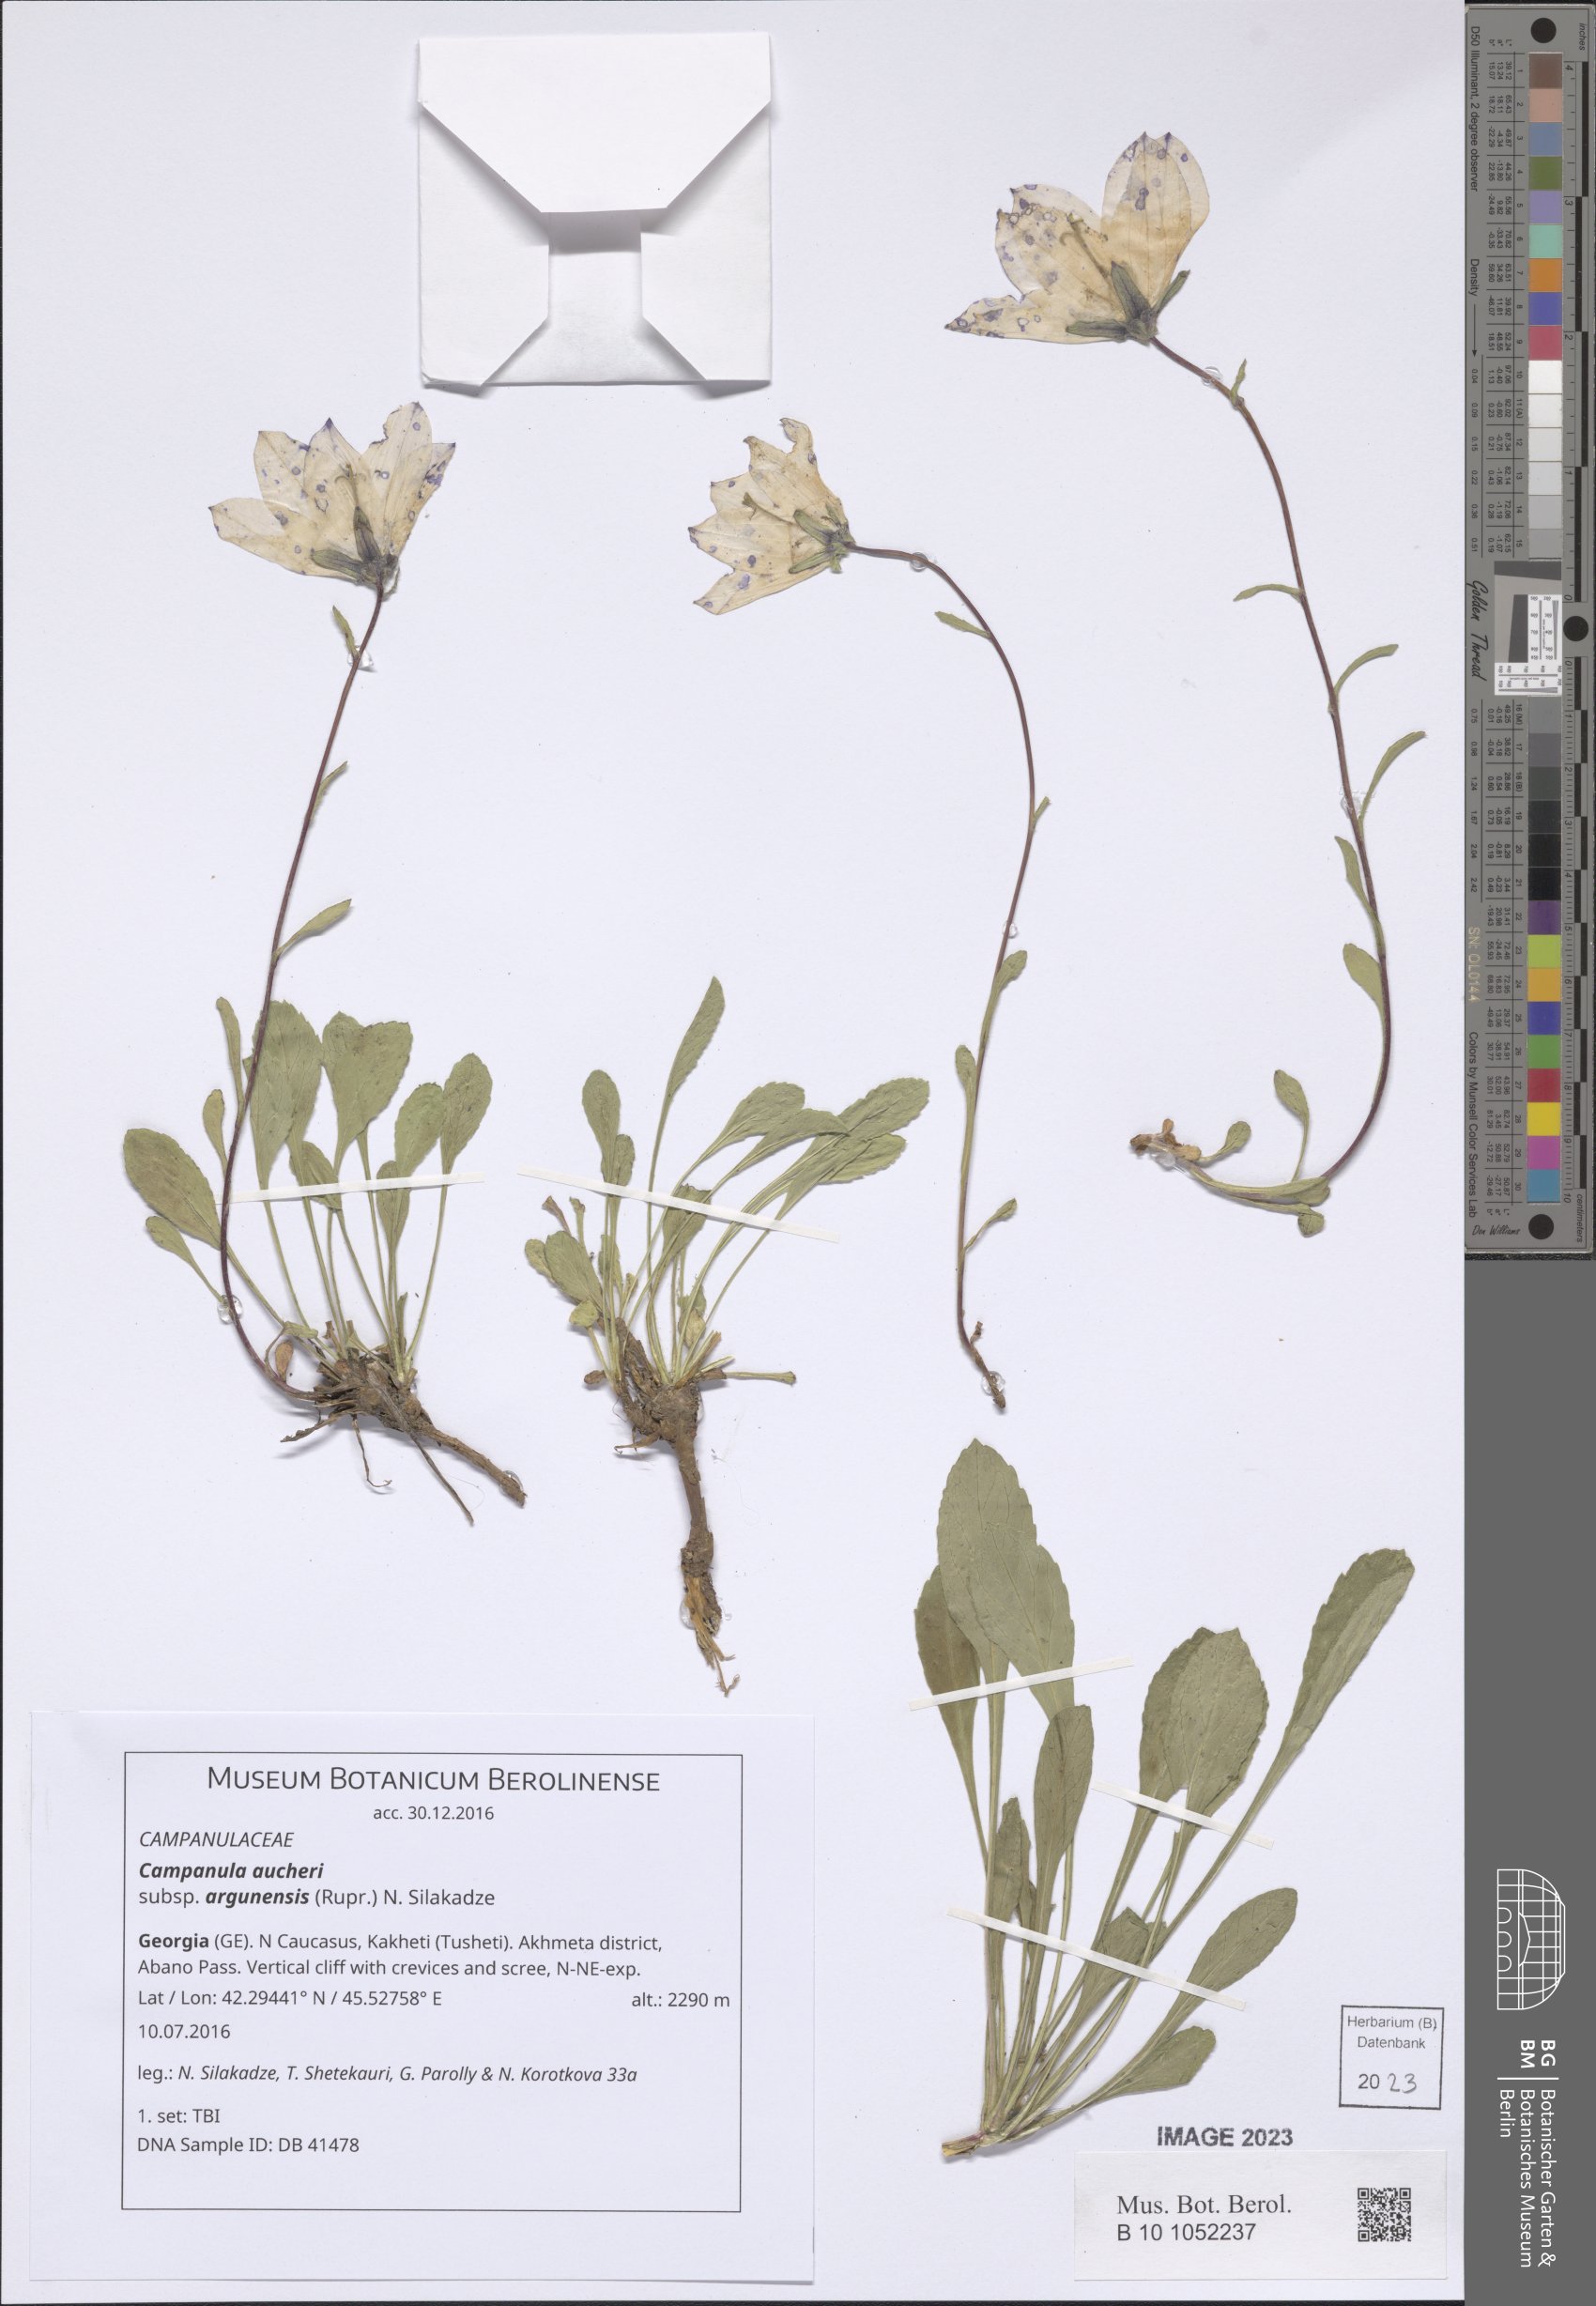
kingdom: Plantae
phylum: Tracheophyta
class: Magnoliopsida
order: Asterales
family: Campanulaceae
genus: Campanula
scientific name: Campanula saxifraga
